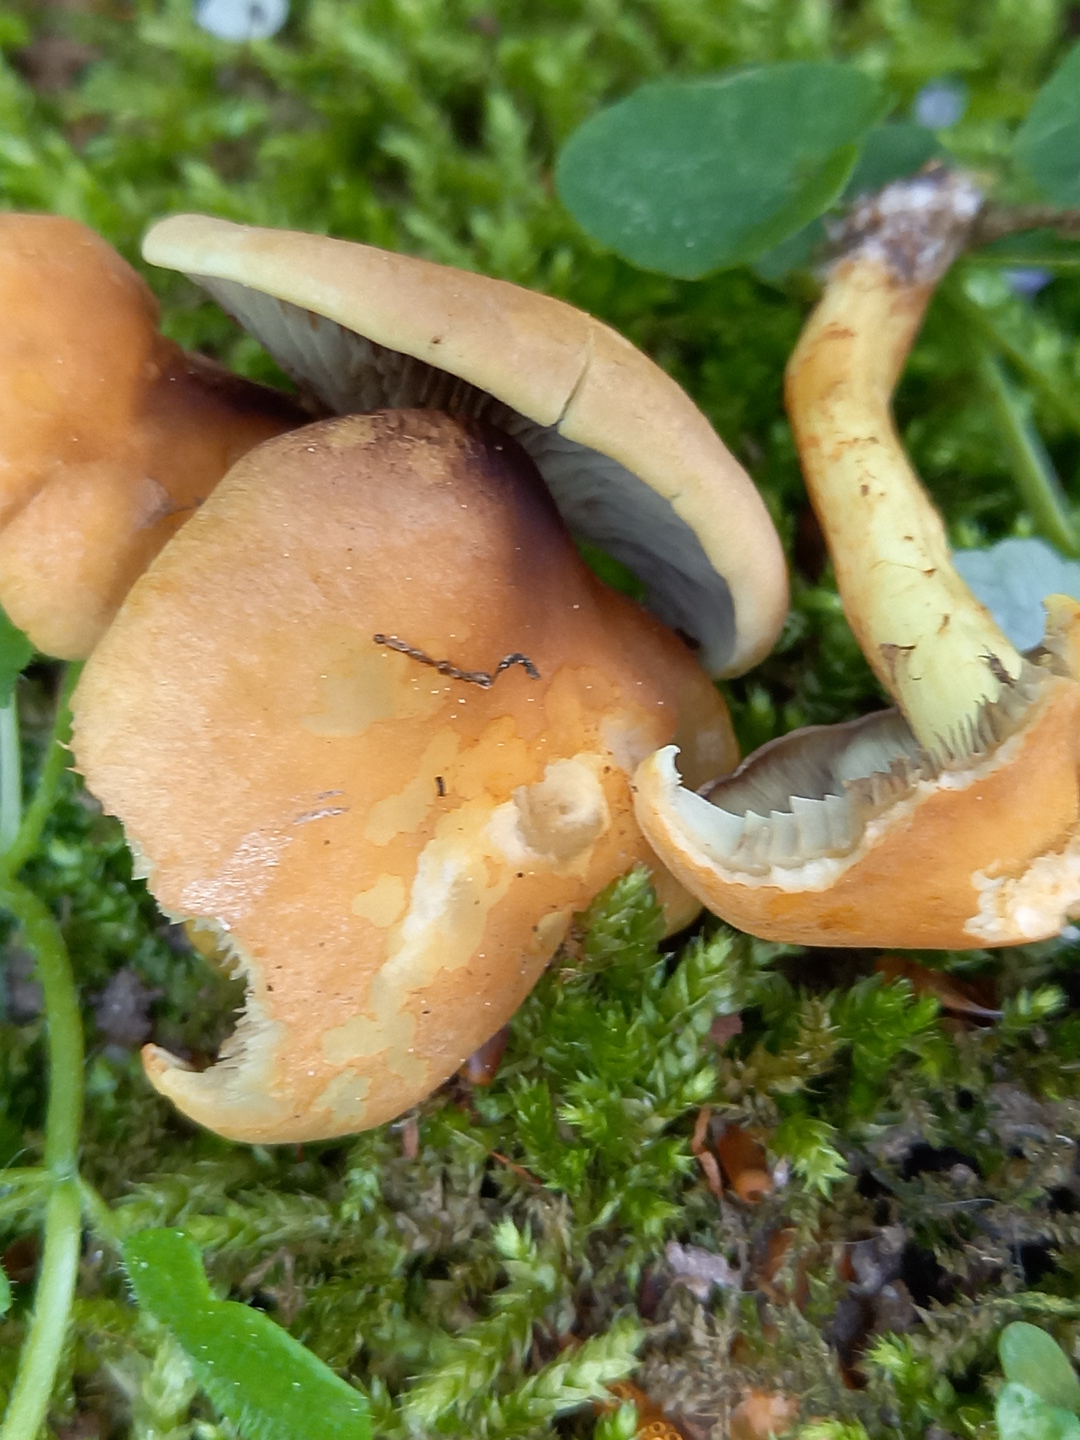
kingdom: Fungi
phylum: Basidiomycota
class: Agaricomycetes
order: Agaricales
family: Strophariaceae
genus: Hypholoma
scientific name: Hypholoma fasciculare
